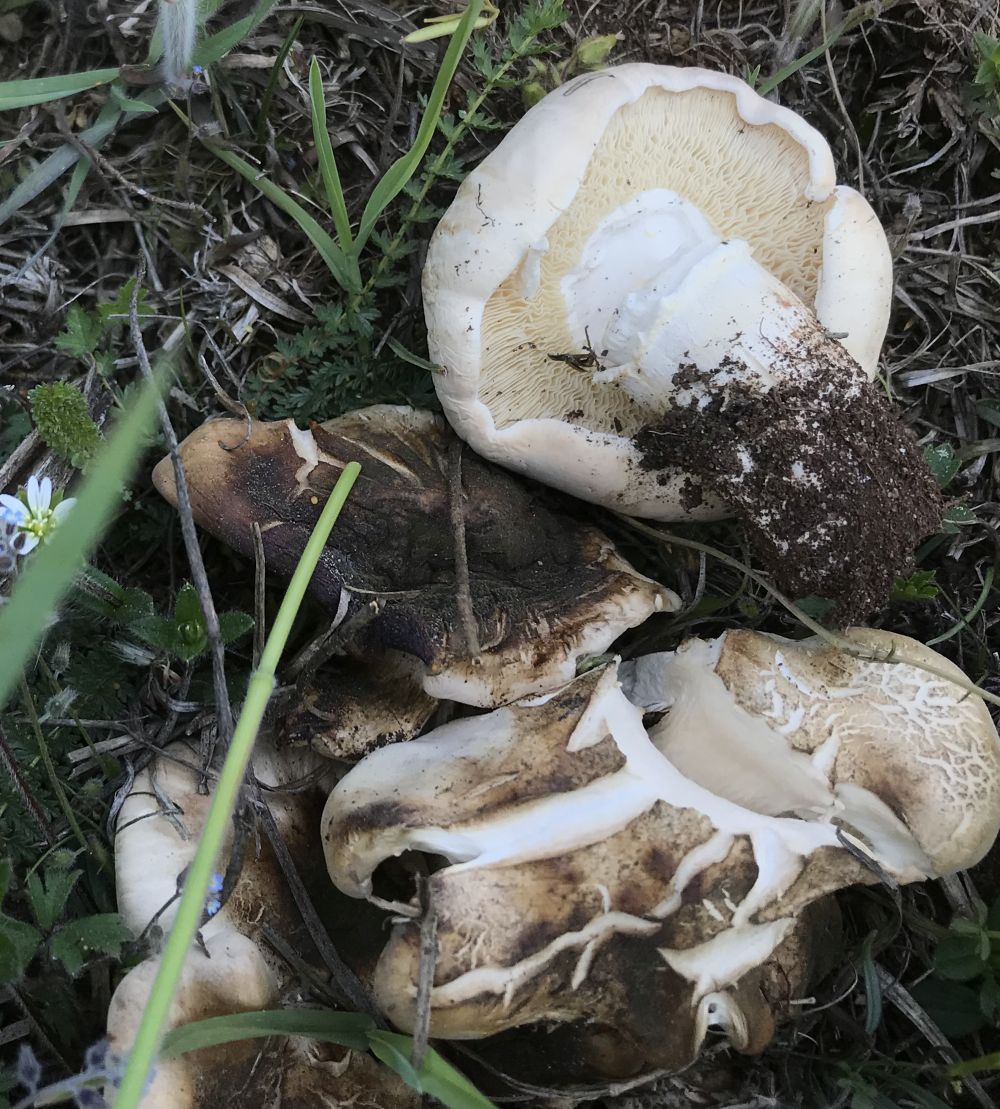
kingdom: Fungi
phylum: Basidiomycota
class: Agaricomycetes
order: Agaricales
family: Lyophyllaceae
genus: Calocybe
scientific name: Calocybe gambosa
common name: vårmusseron
